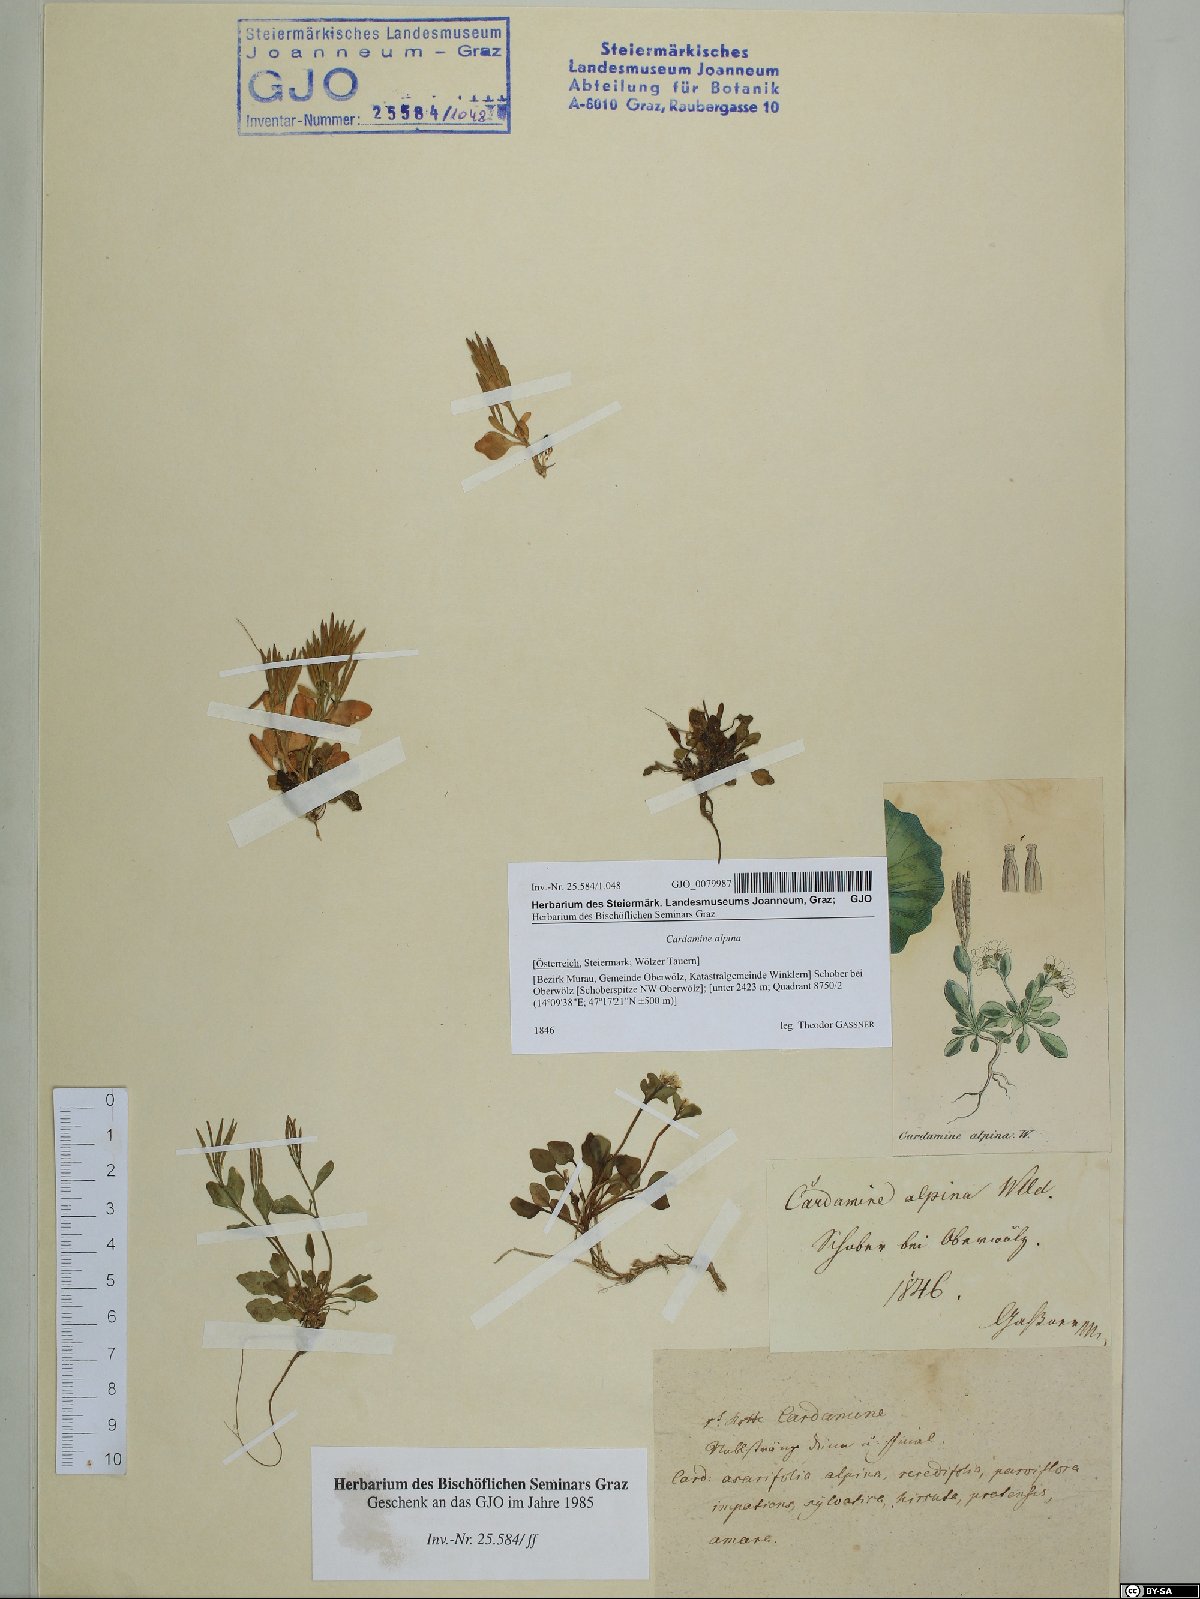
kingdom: Plantae
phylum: Tracheophyta
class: Magnoliopsida
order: Brassicales
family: Brassicaceae
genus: Cardamine
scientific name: Cardamine bellidifolia
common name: Alpine bittercress
